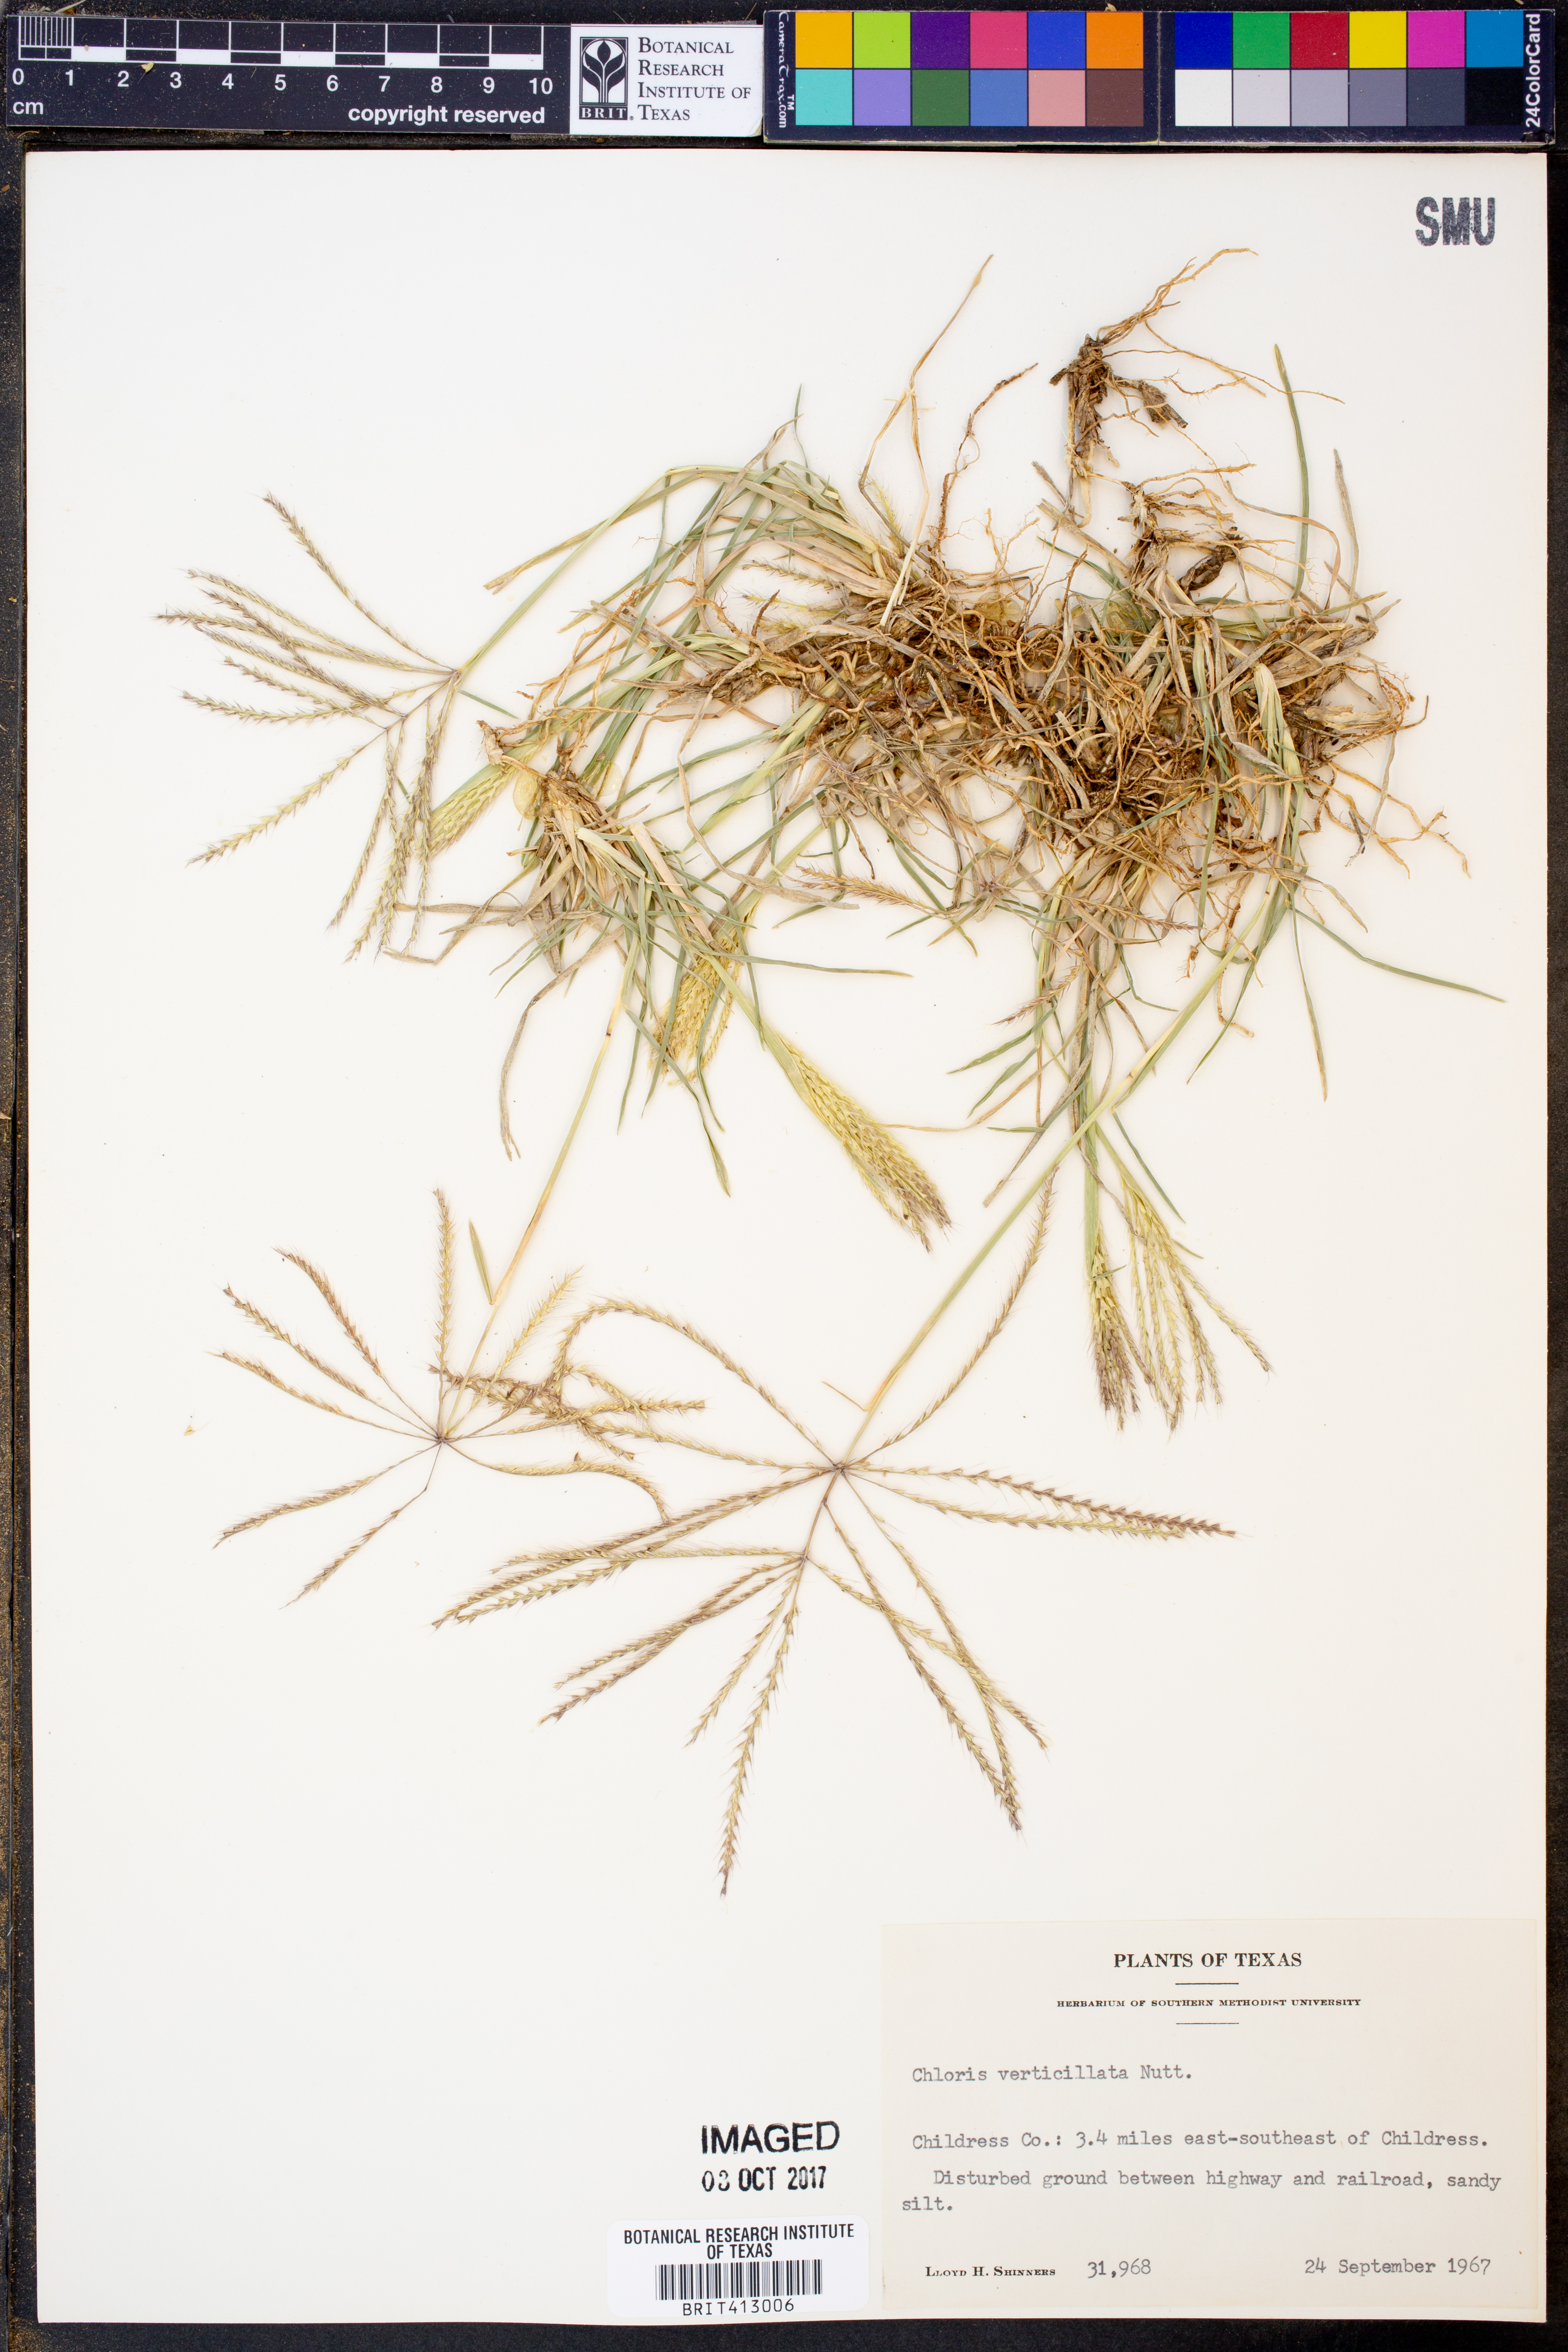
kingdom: Plantae
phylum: Tracheophyta
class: Liliopsida
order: Poales
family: Poaceae
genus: Chloris
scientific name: Chloris verticillata
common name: Tumble windmill grass
